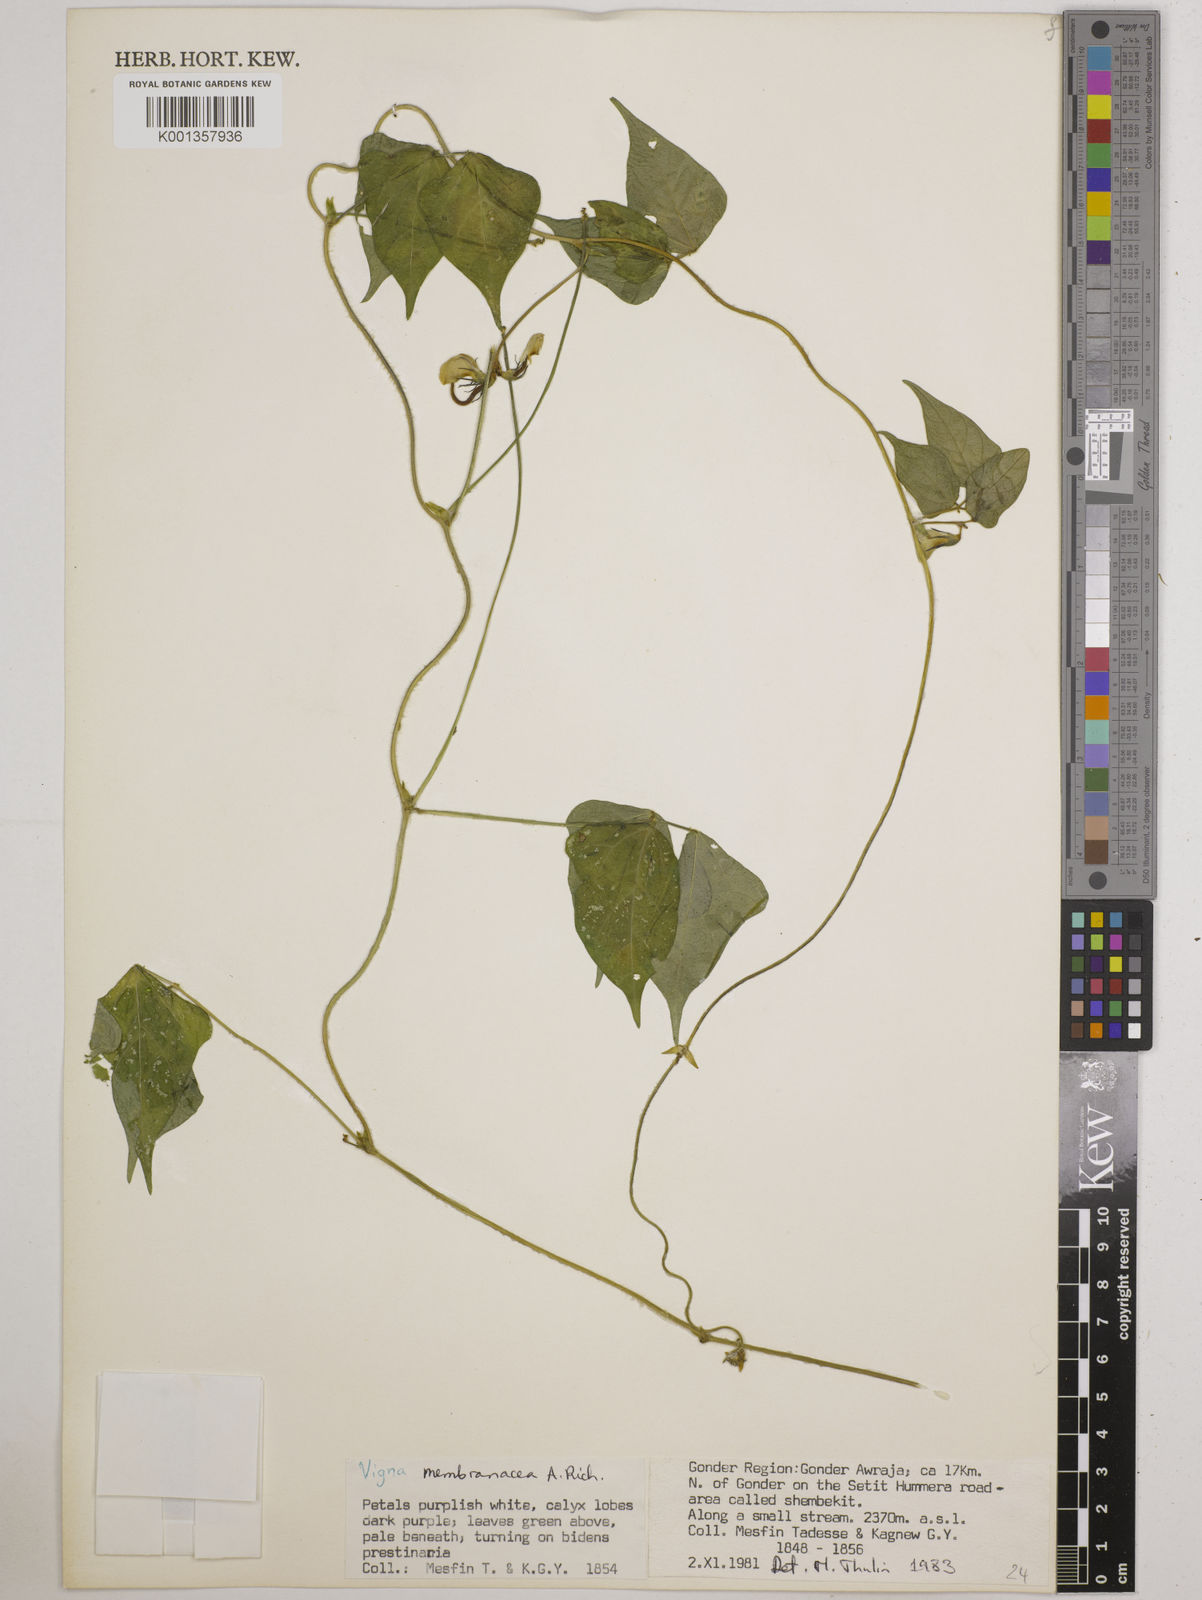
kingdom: Plantae
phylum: Tracheophyta
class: Magnoliopsida
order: Fabales
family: Fabaceae
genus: Vigna
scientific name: Vigna membranacea
